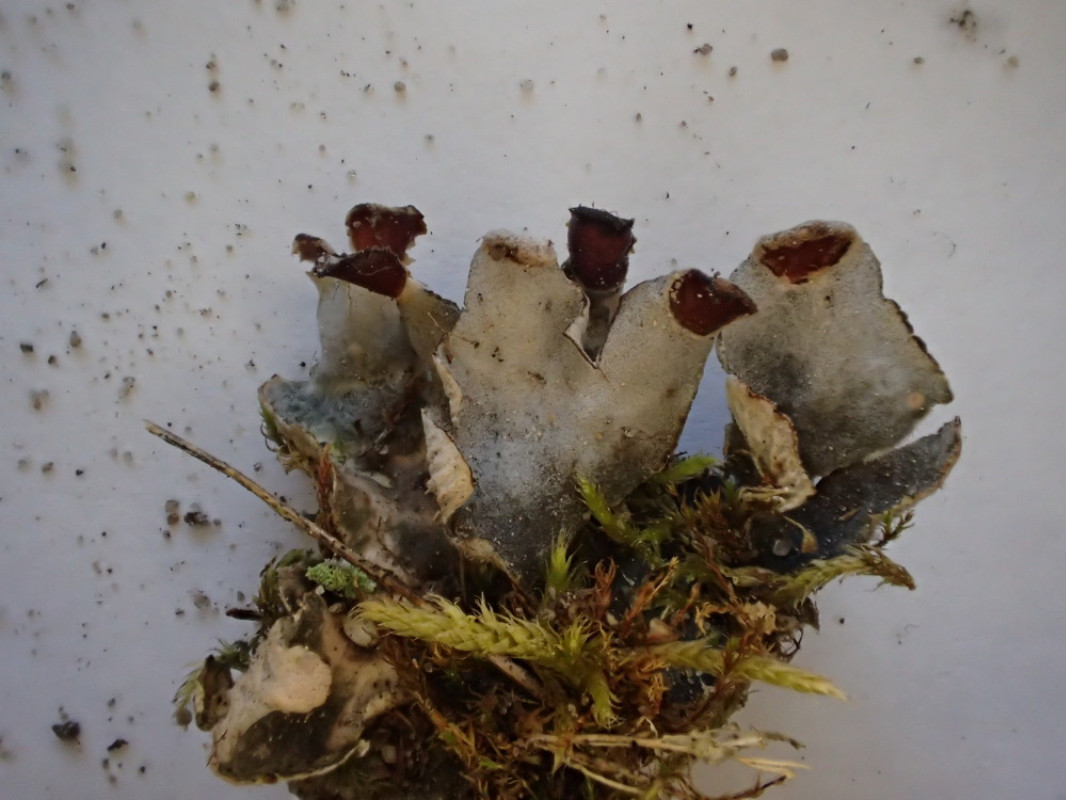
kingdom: Fungi
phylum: Ascomycota
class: Lecanoromycetes
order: Peltigerales
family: Peltigeraceae
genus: Peltigera
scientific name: Peltigera didactyla
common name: liden skjoldlav
